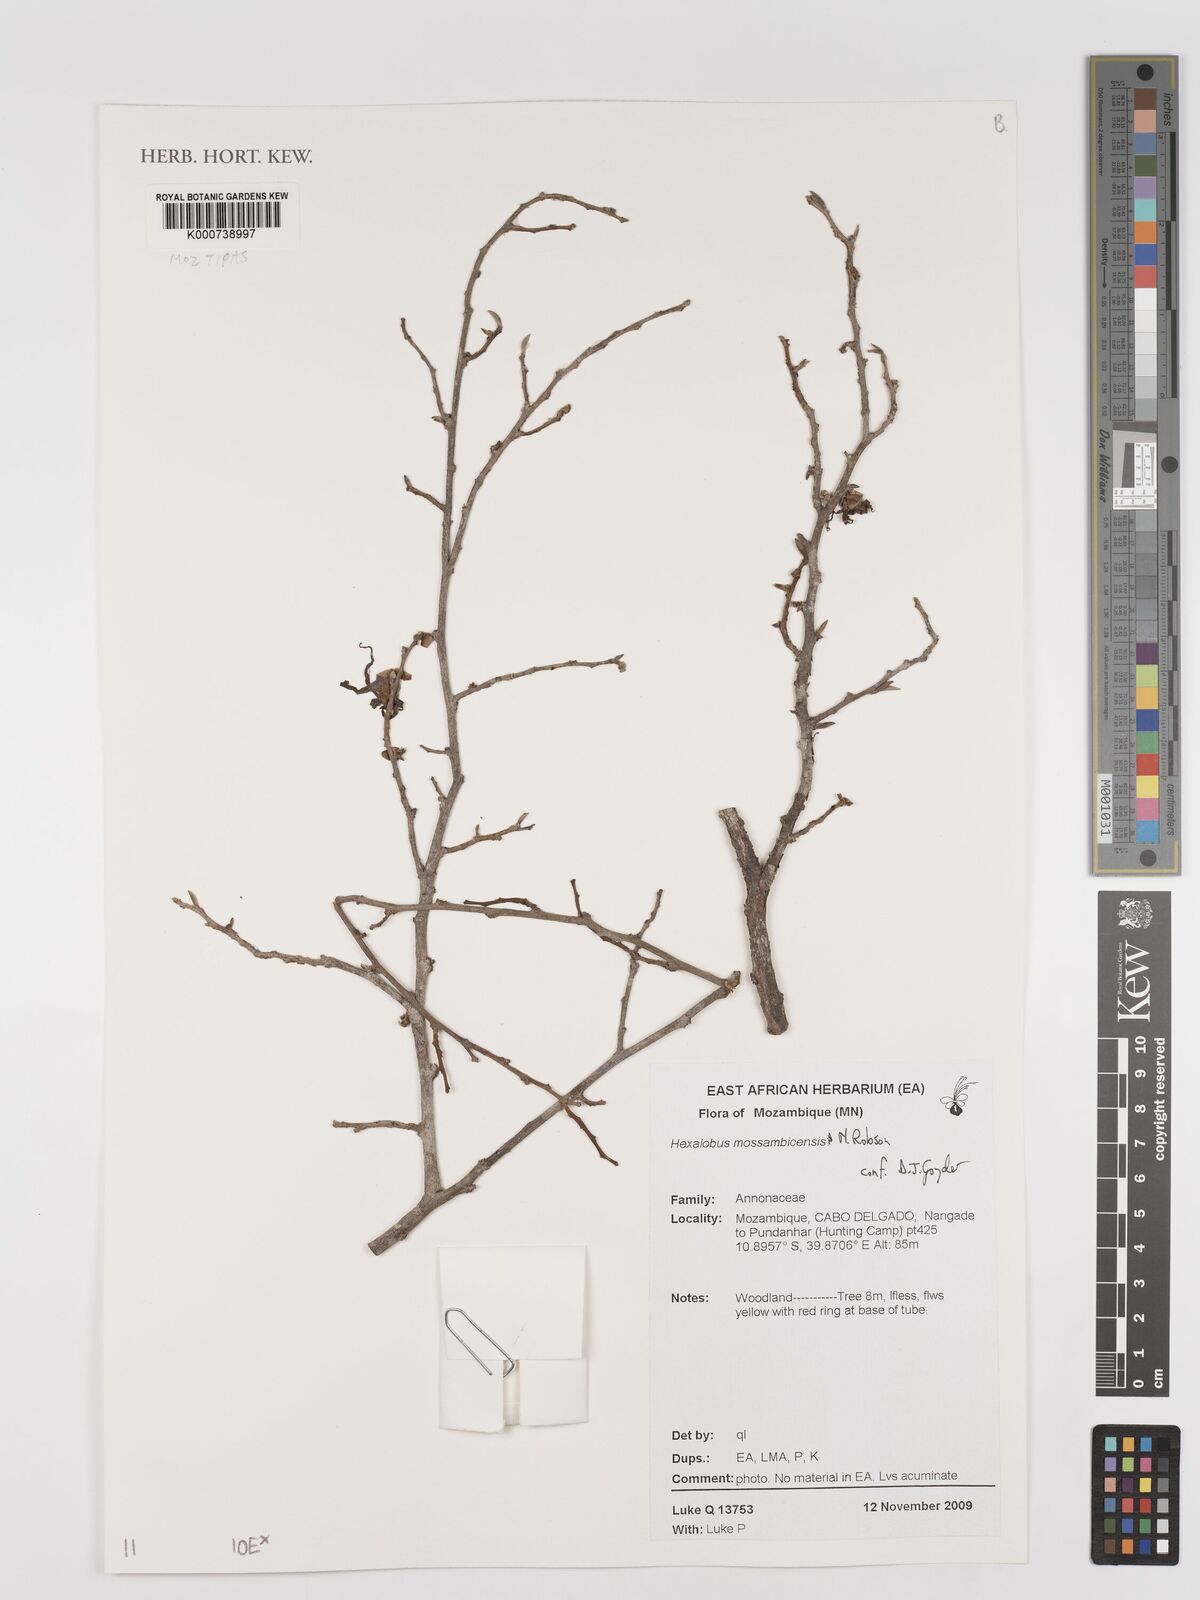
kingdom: Plantae
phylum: Tracheophyta
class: Magnoliopsida
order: Magnoliales
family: Annonaceae
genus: Hexalobus
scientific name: Hexalobus mossambicensis
